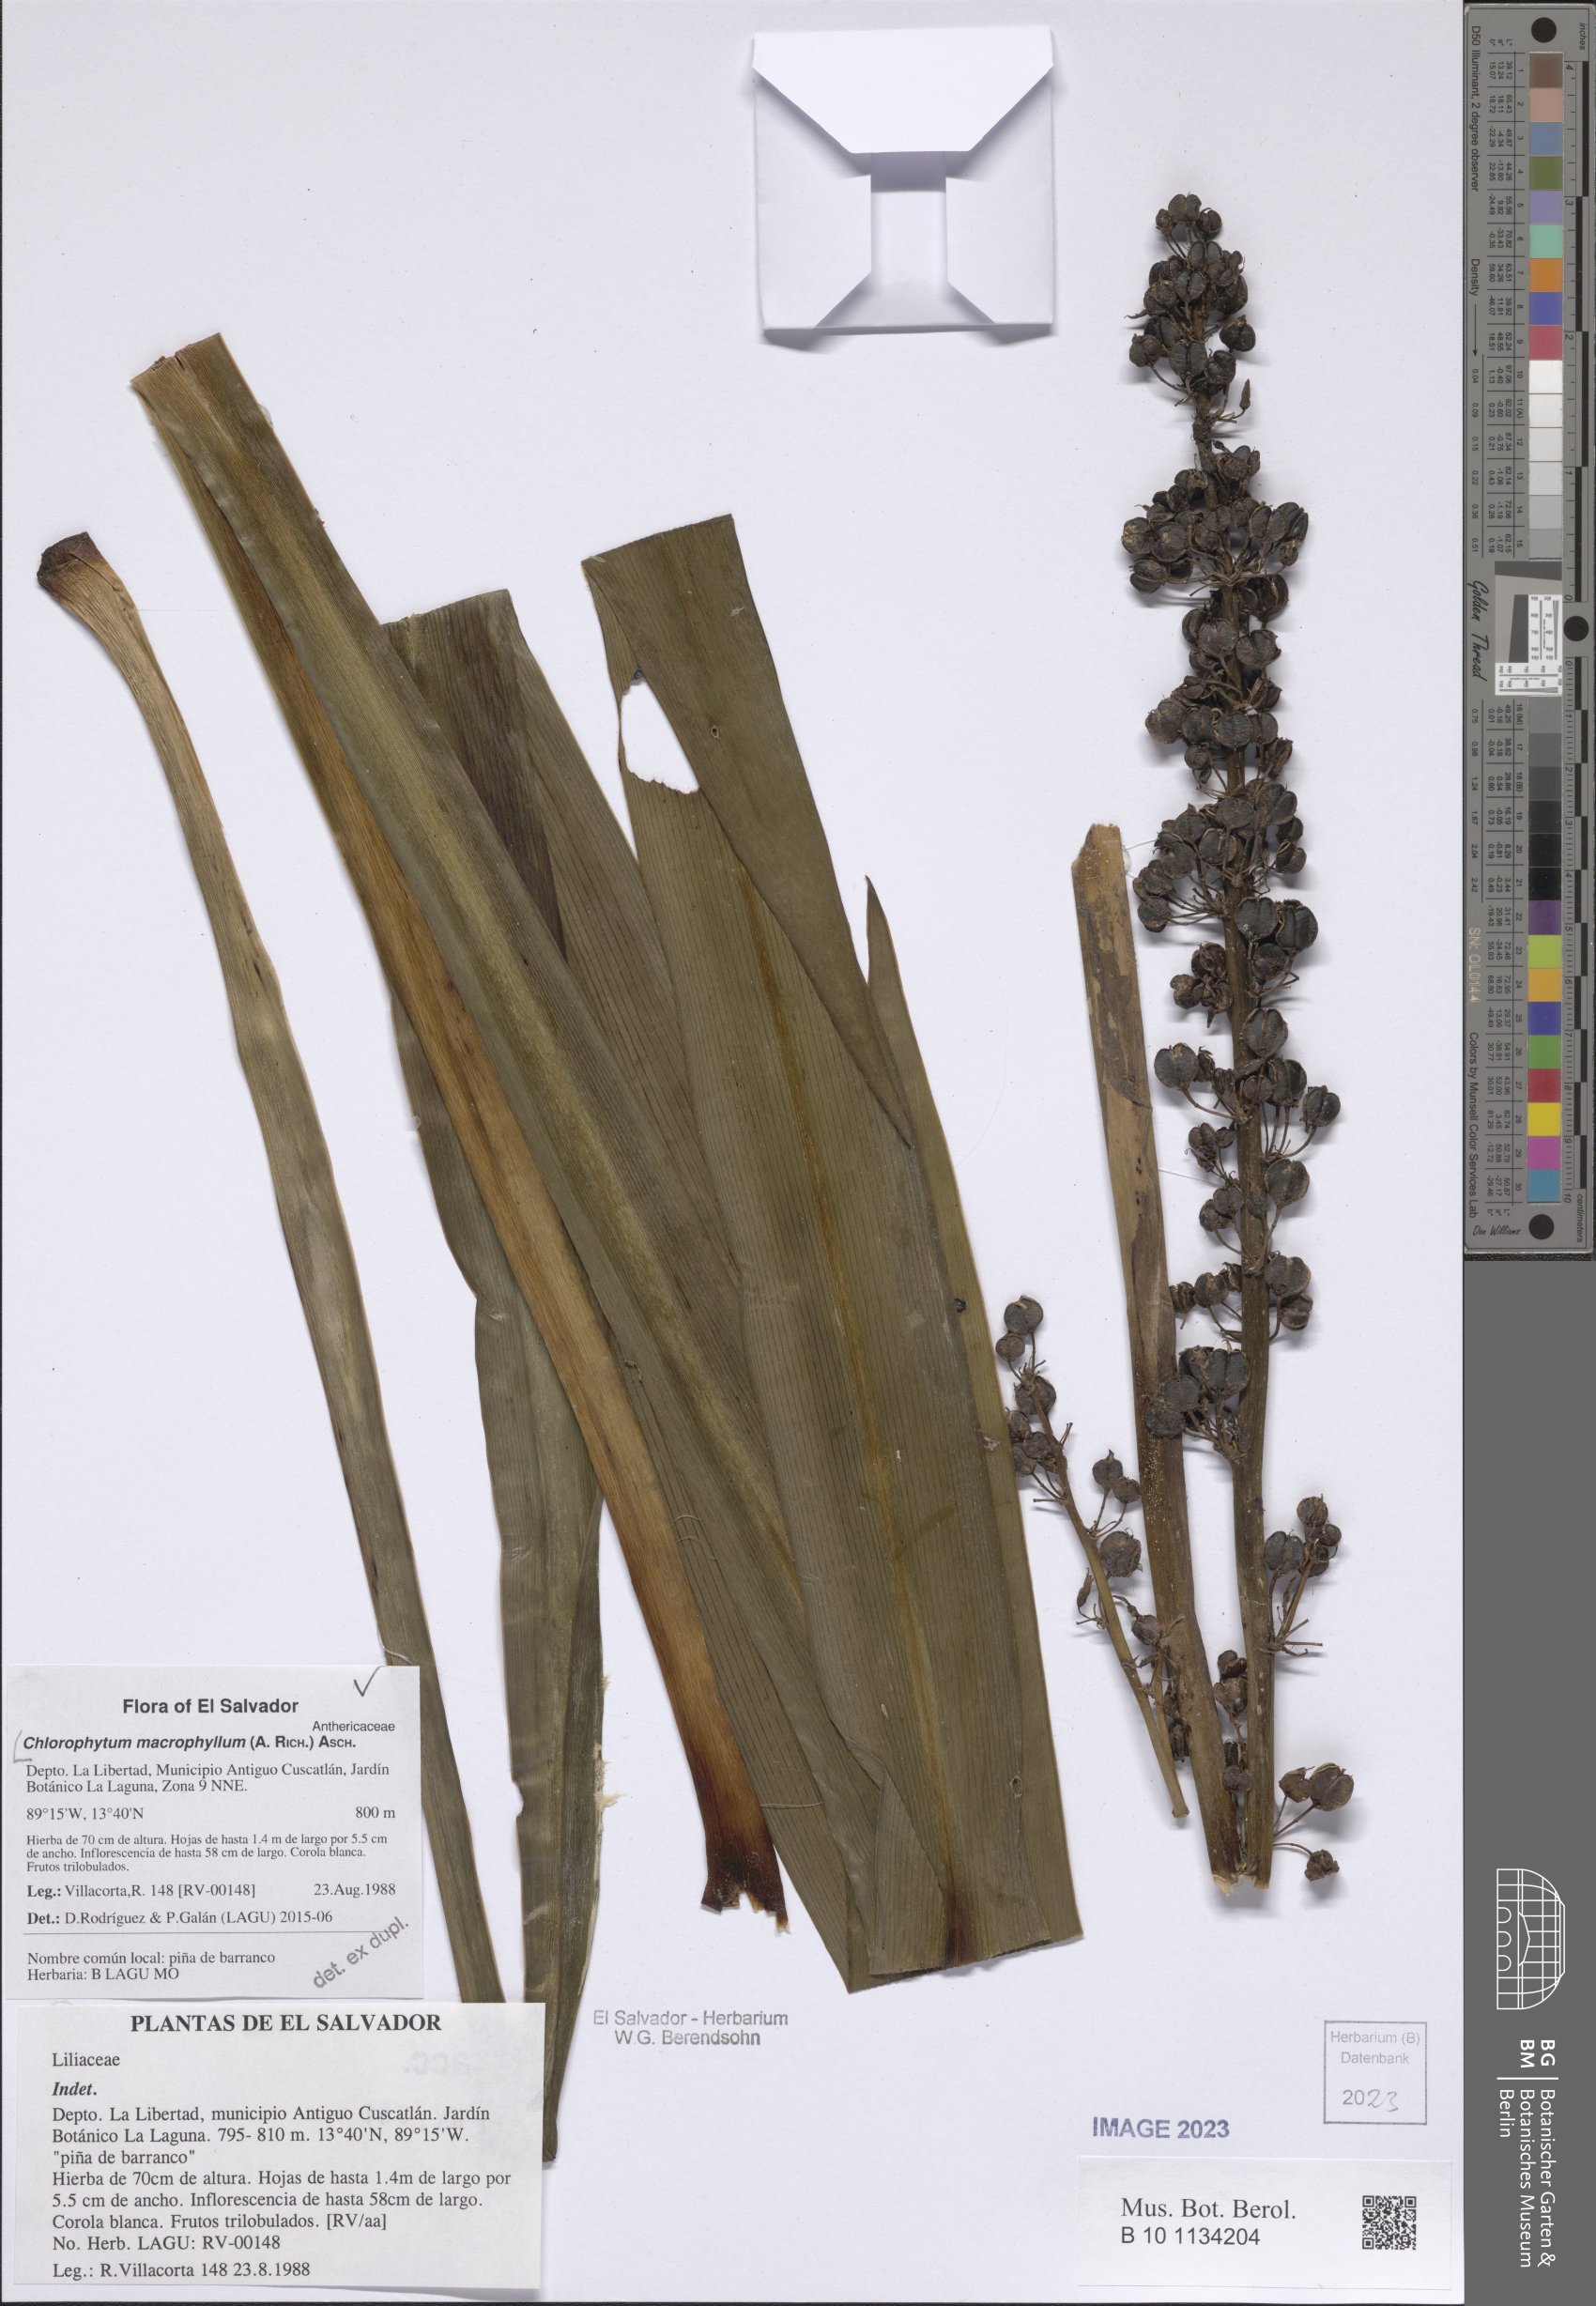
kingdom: Plantae
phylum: Tracheophyta
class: Liliopsida
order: Asparagales
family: Asparagaceae
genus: Chlorophytum
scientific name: Chlorophytum macrophyllum
